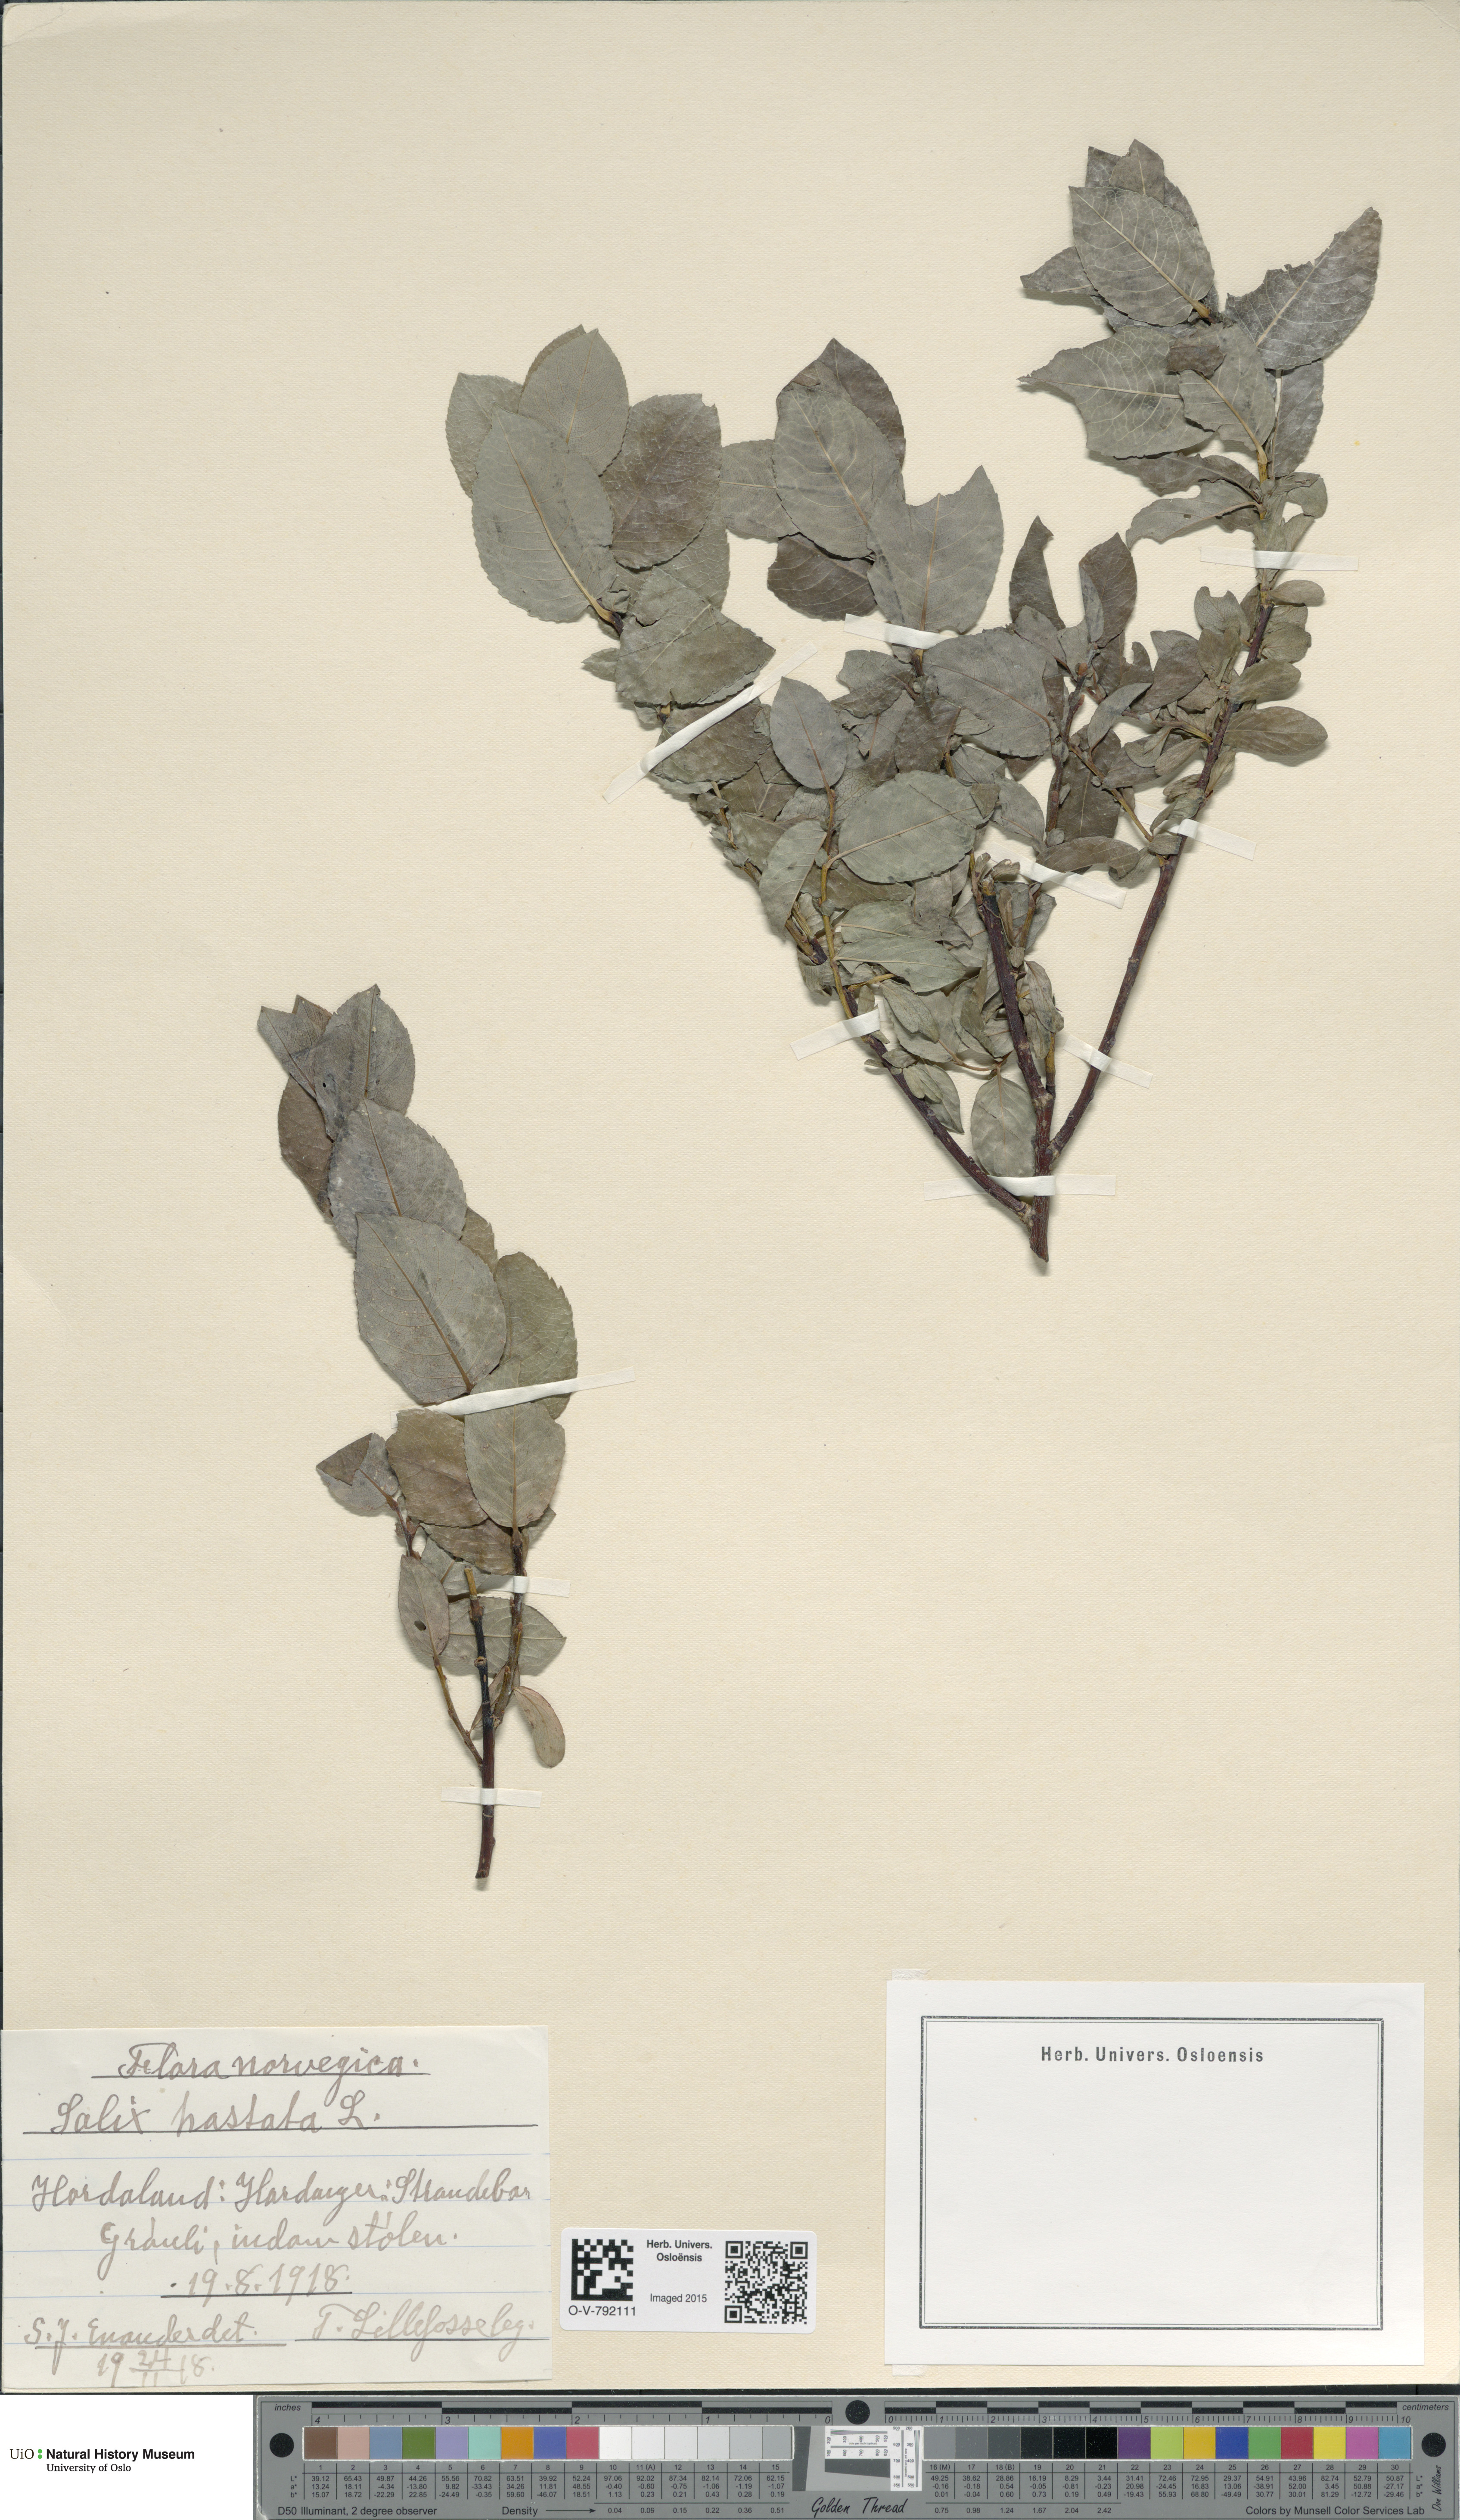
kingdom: Plantae
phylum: Tracheophyta
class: Magnoliopsida
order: Malpighiales
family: Salicaceae
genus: Salix
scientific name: Salix hastata
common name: Halberd willow
